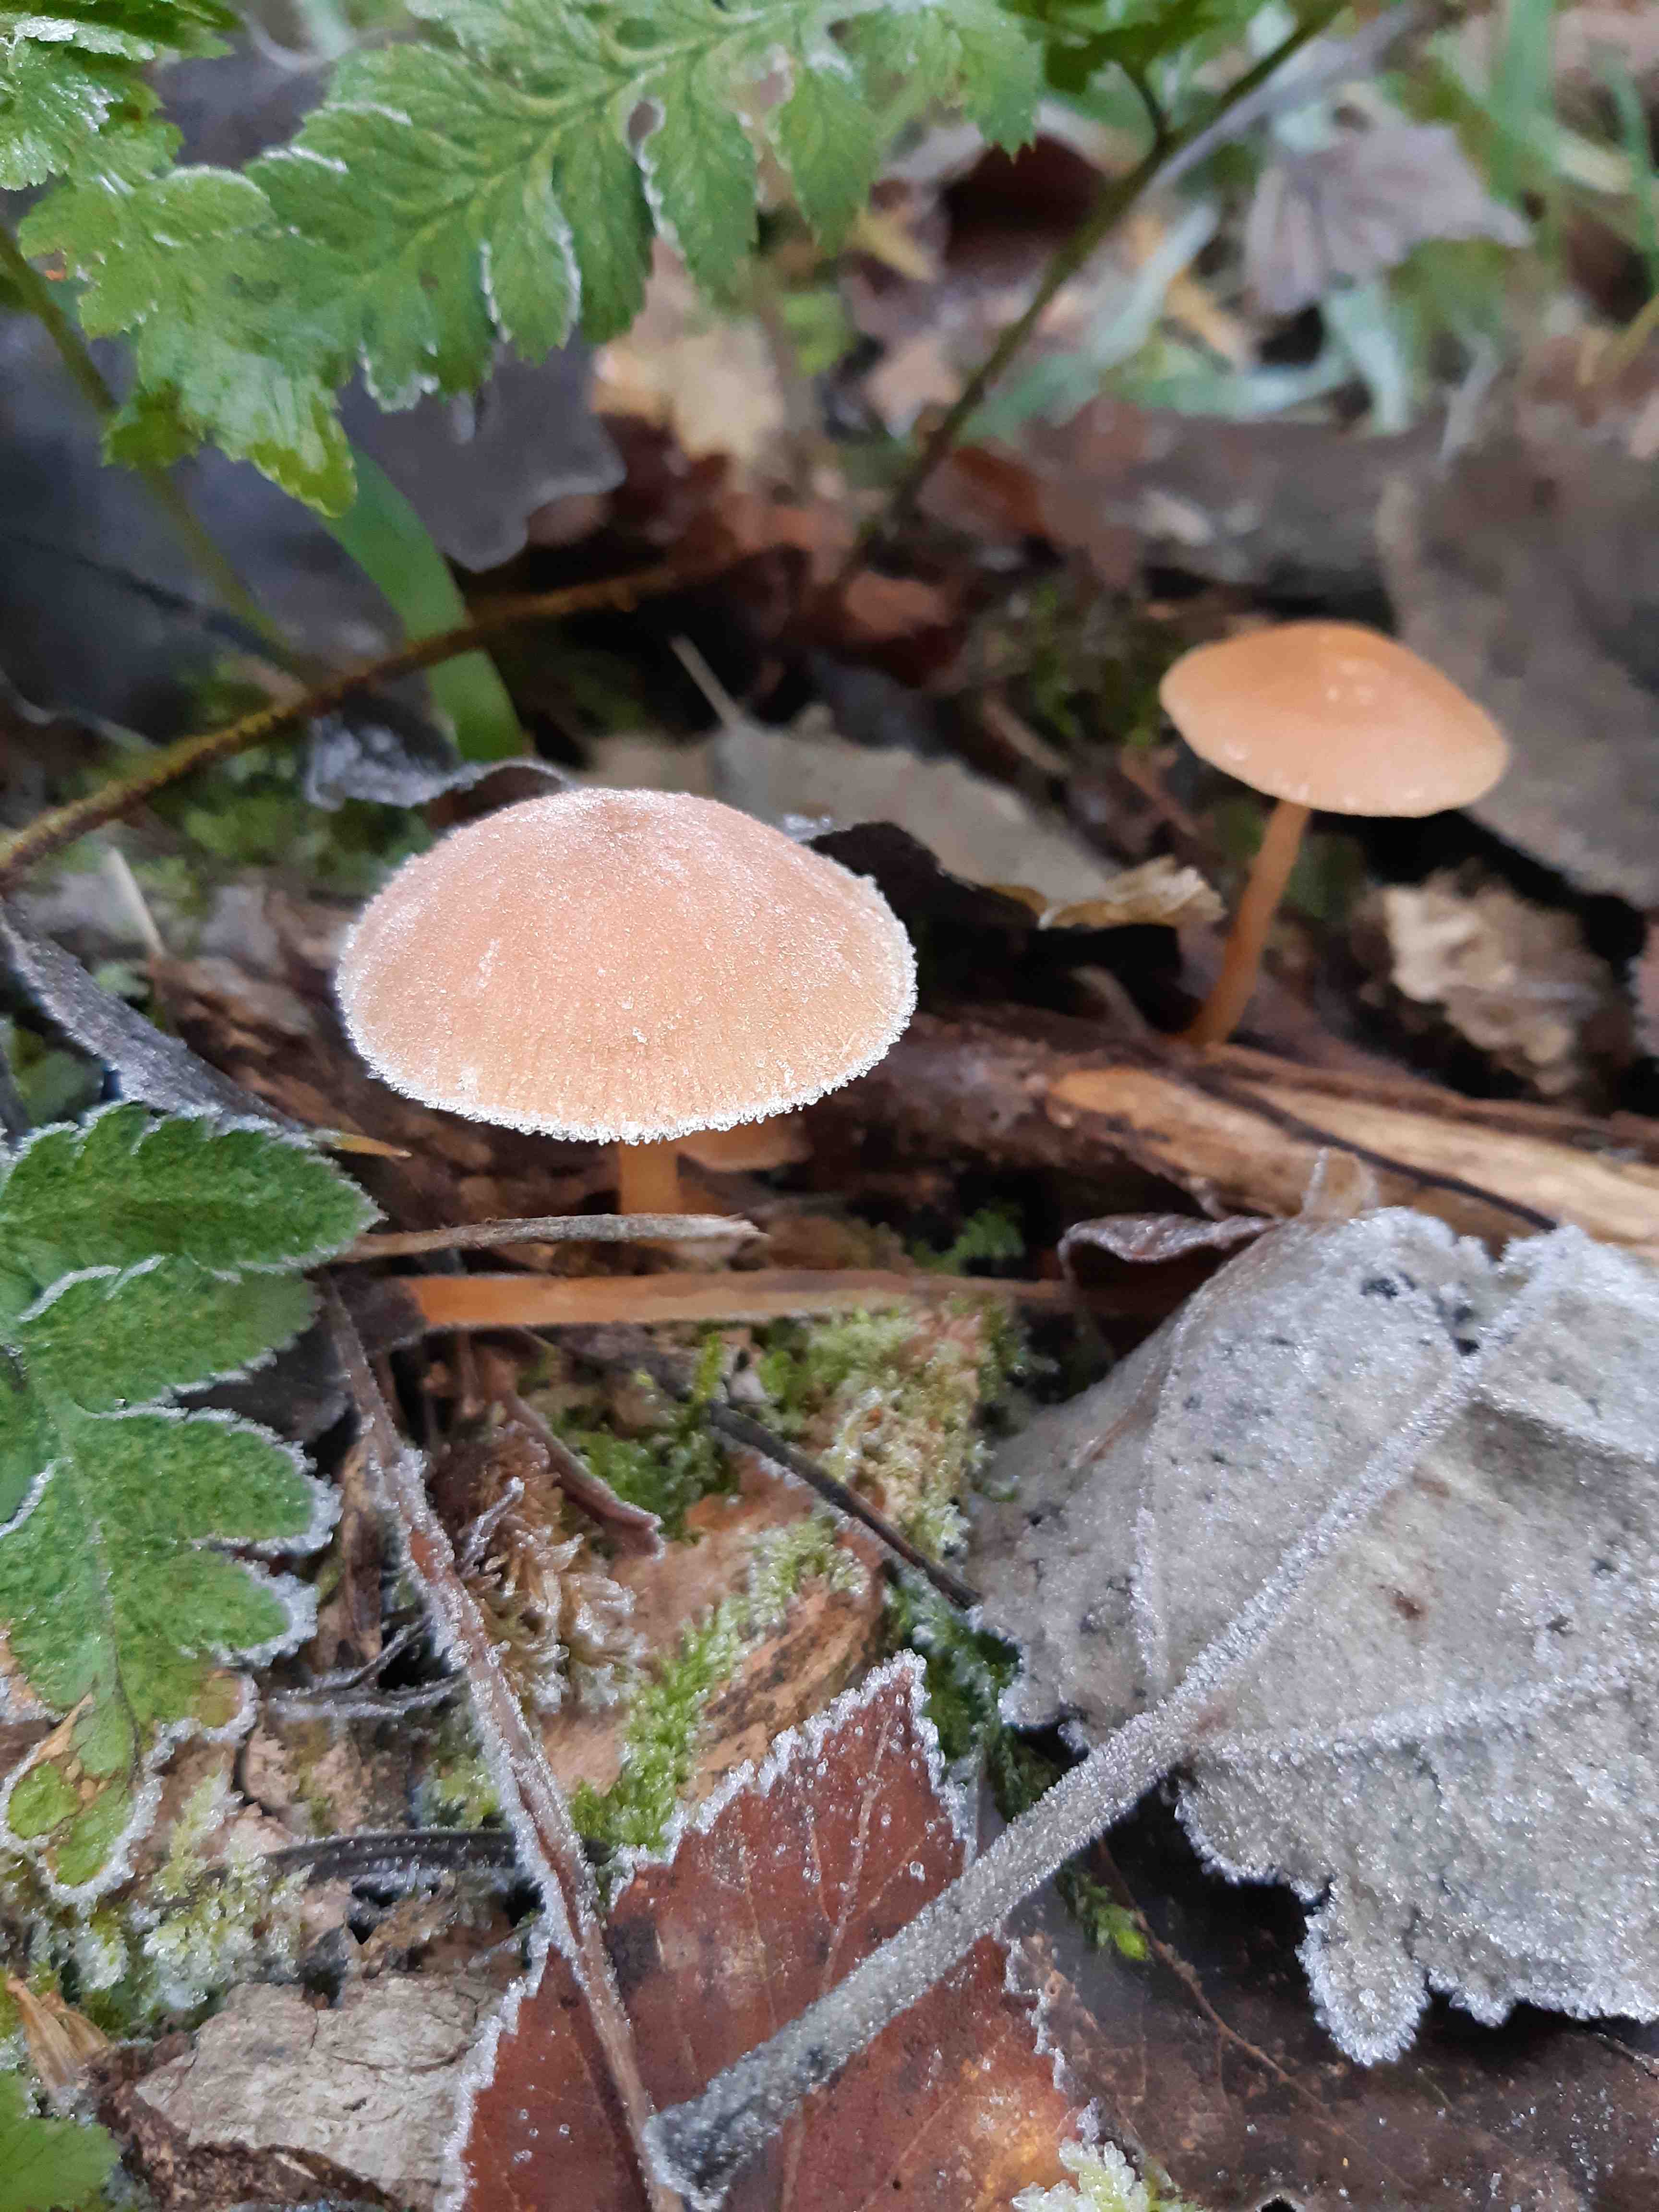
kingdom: Fungi
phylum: Basidiomycota
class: Agaricomycetes
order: Agaricales
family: Tubariaceae
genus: Tubaria
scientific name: Tubaria furfuracea
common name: kliddet fnughat
